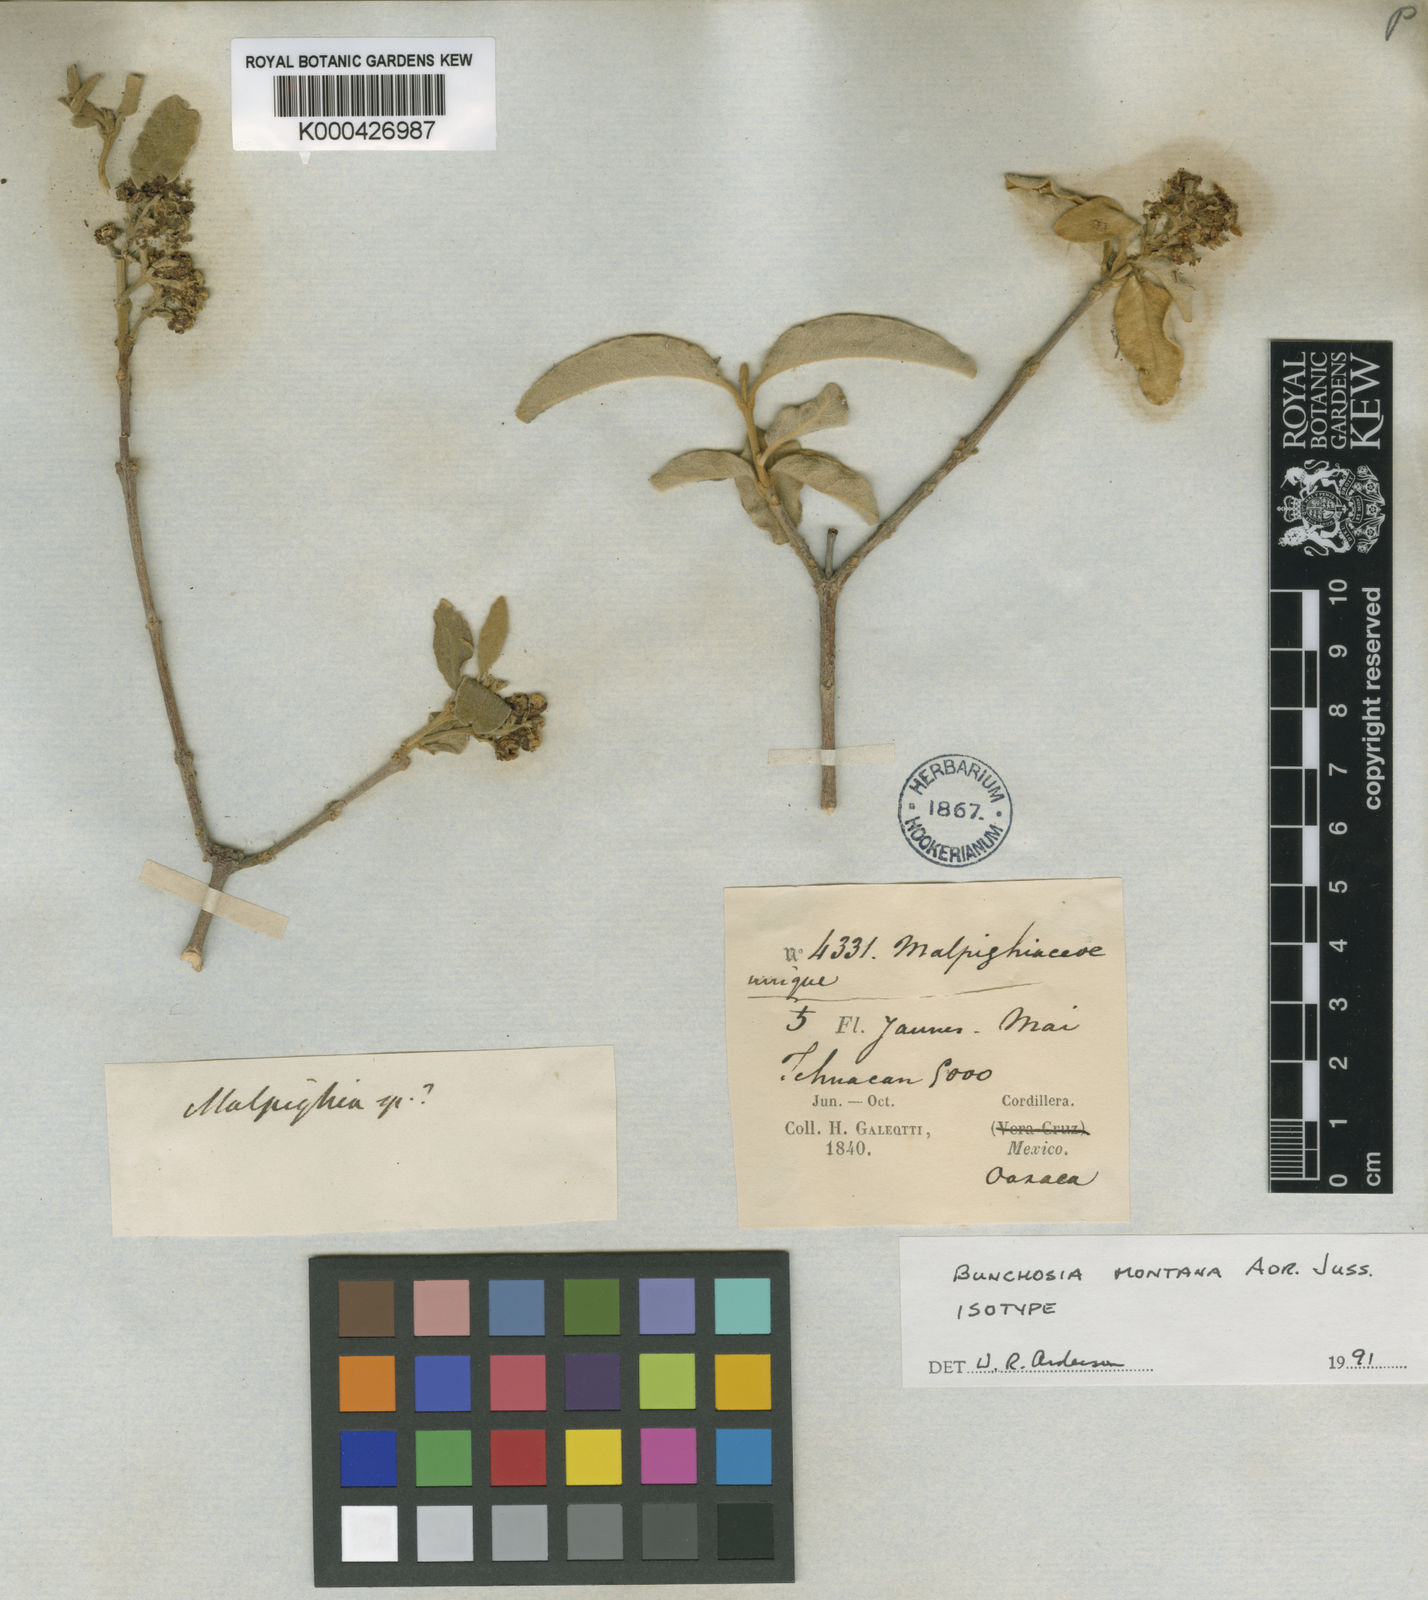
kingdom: Plantae
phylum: Tracheophyta
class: Magnoliopsida
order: Malpighiales
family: Malpighiaceae
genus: Bunchosia
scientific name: Bunchosia montana
